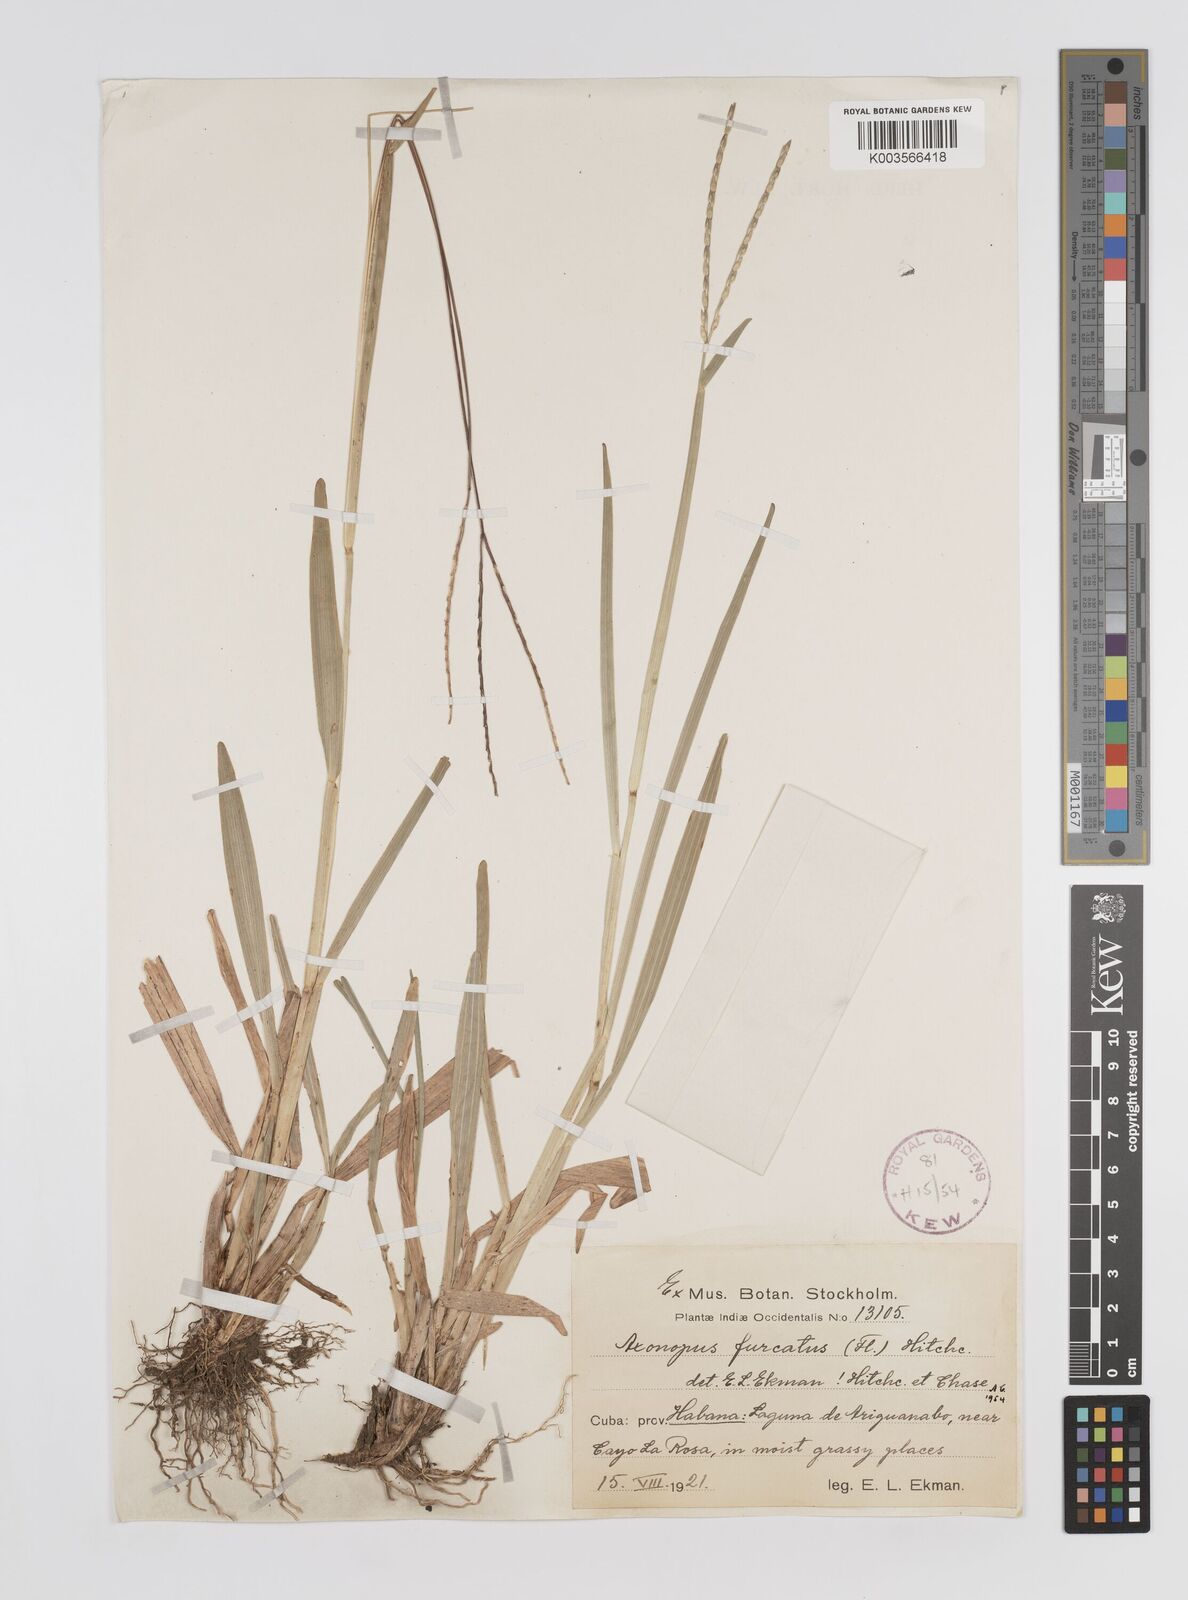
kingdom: Plantae
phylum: Tracheophyta
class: Liliopsida
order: Poales
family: Poaceae
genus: Axonopus
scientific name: Axonopus furcatus
